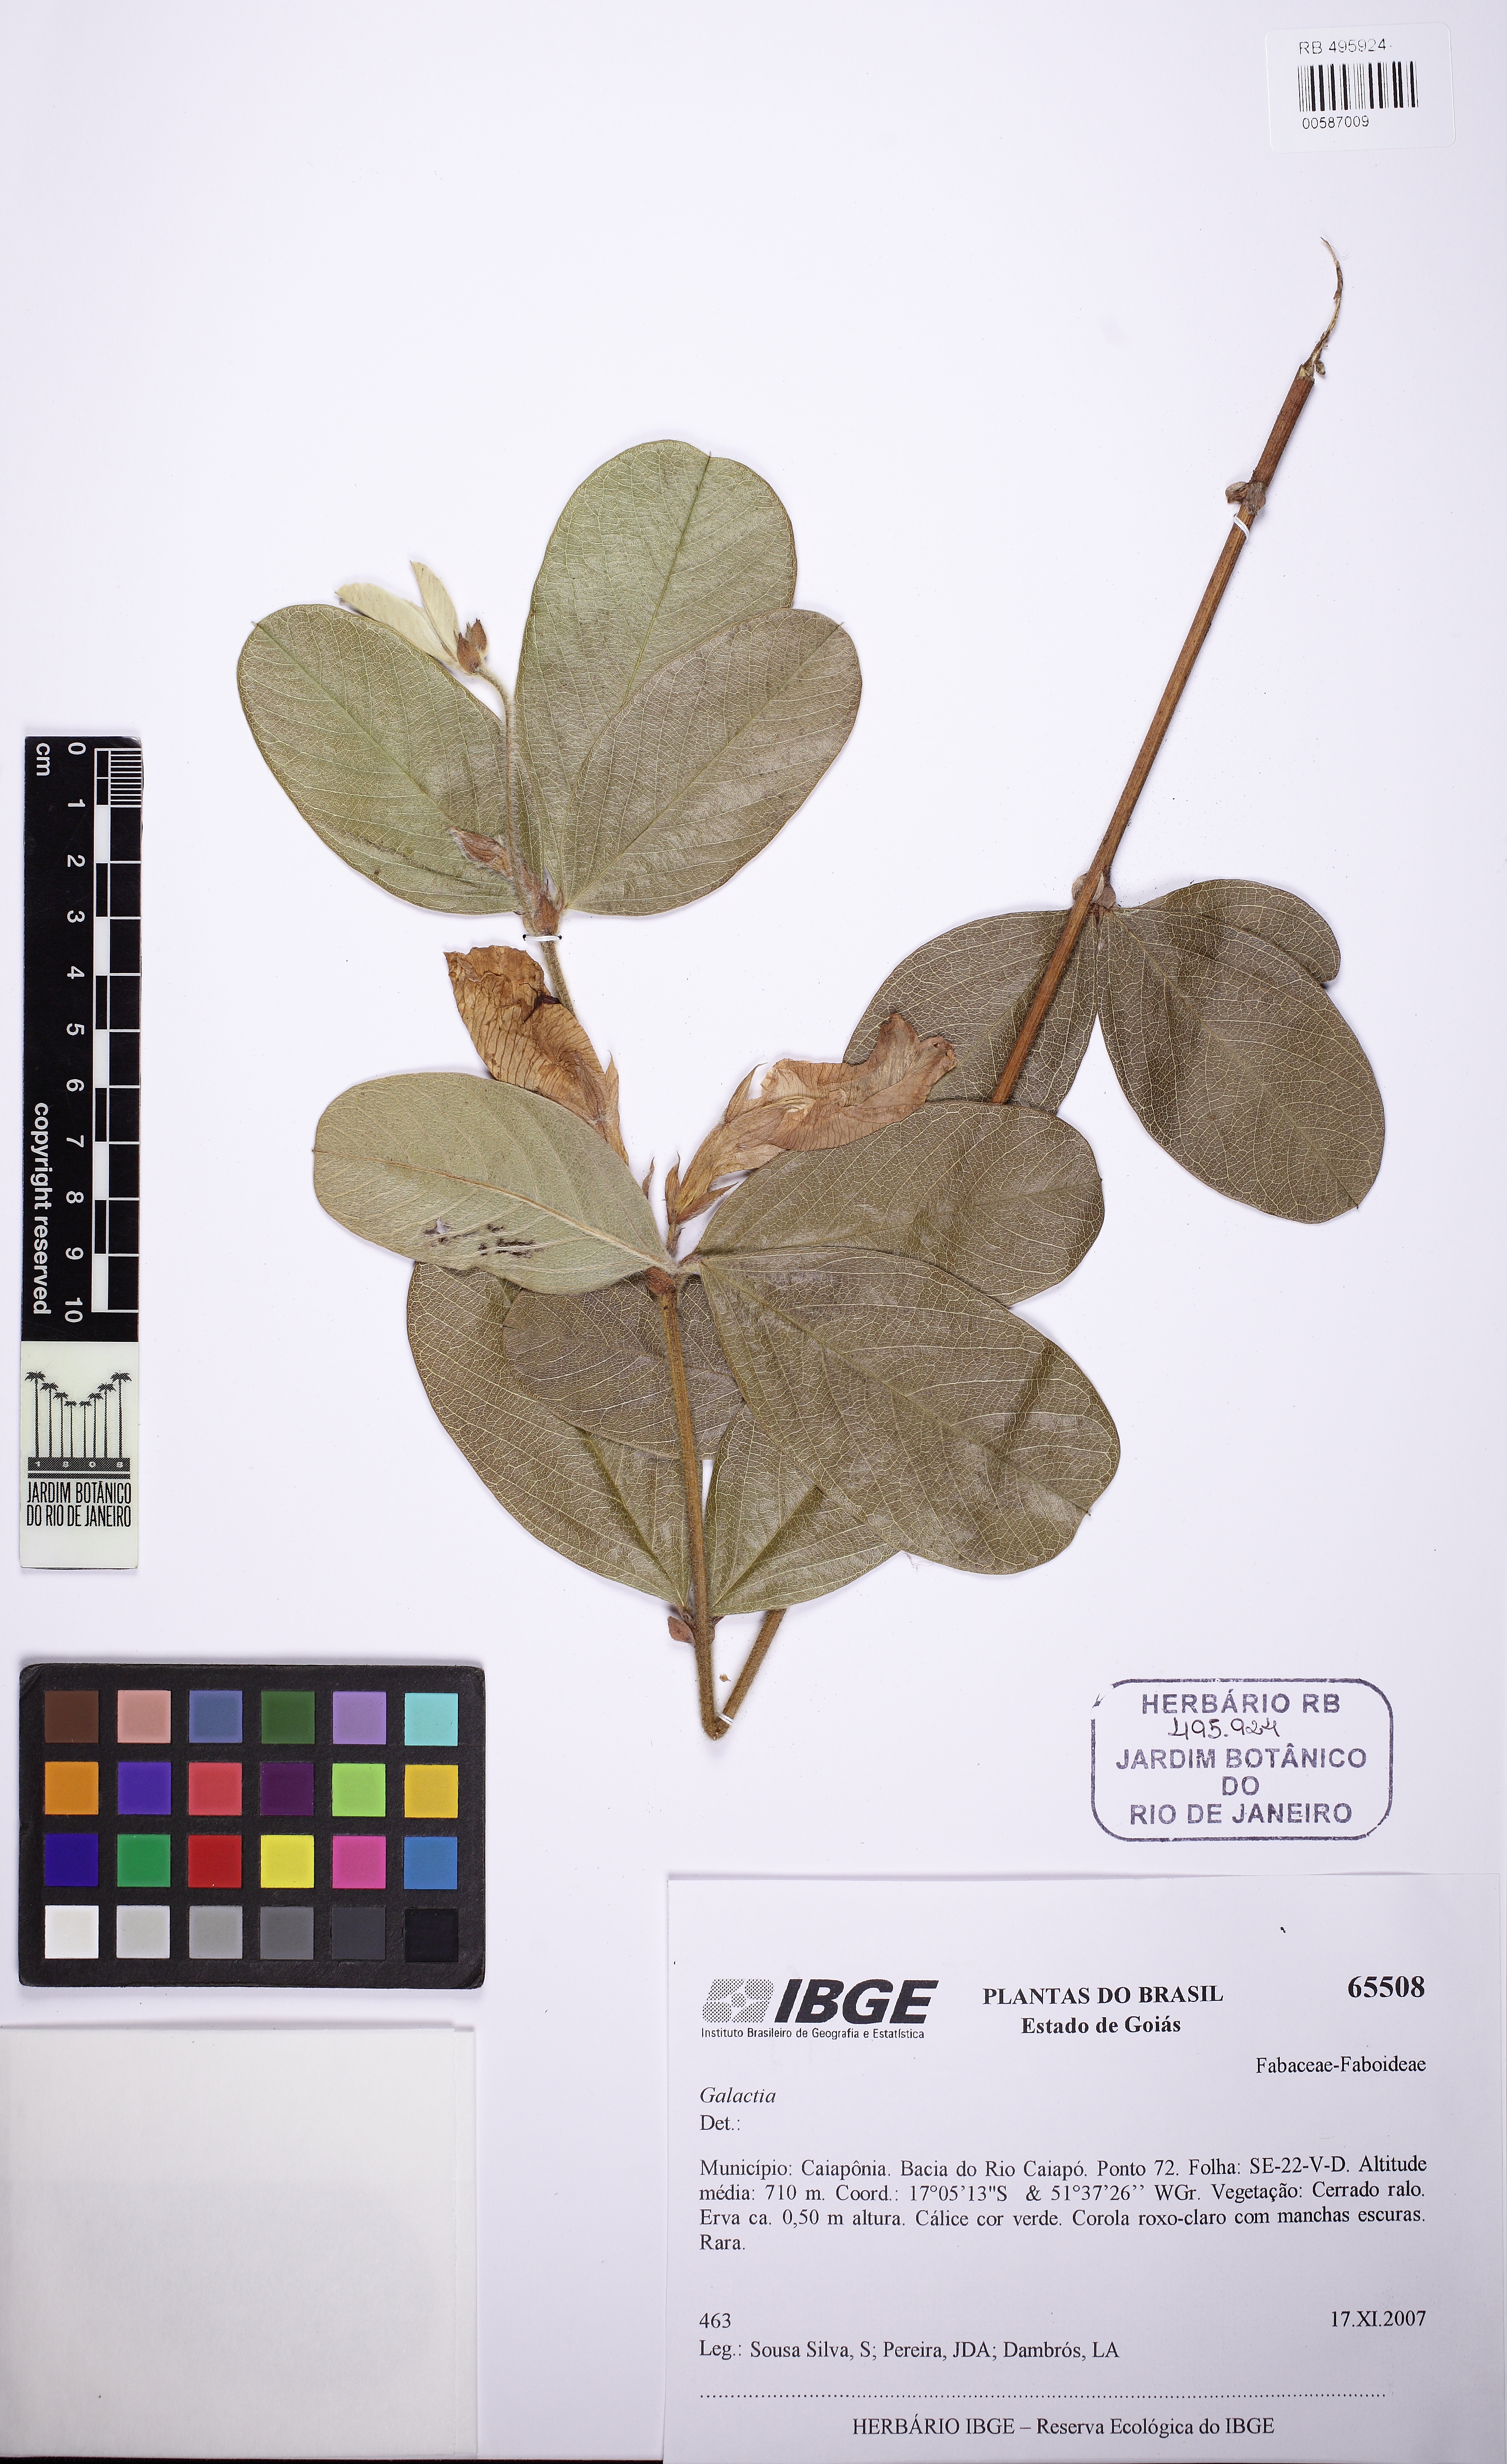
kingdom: Plantae
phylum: Tracheophyta
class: Magnoliopsida
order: Fabales
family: Fabaceae
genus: Clitoria
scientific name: Clitoria densiflora
